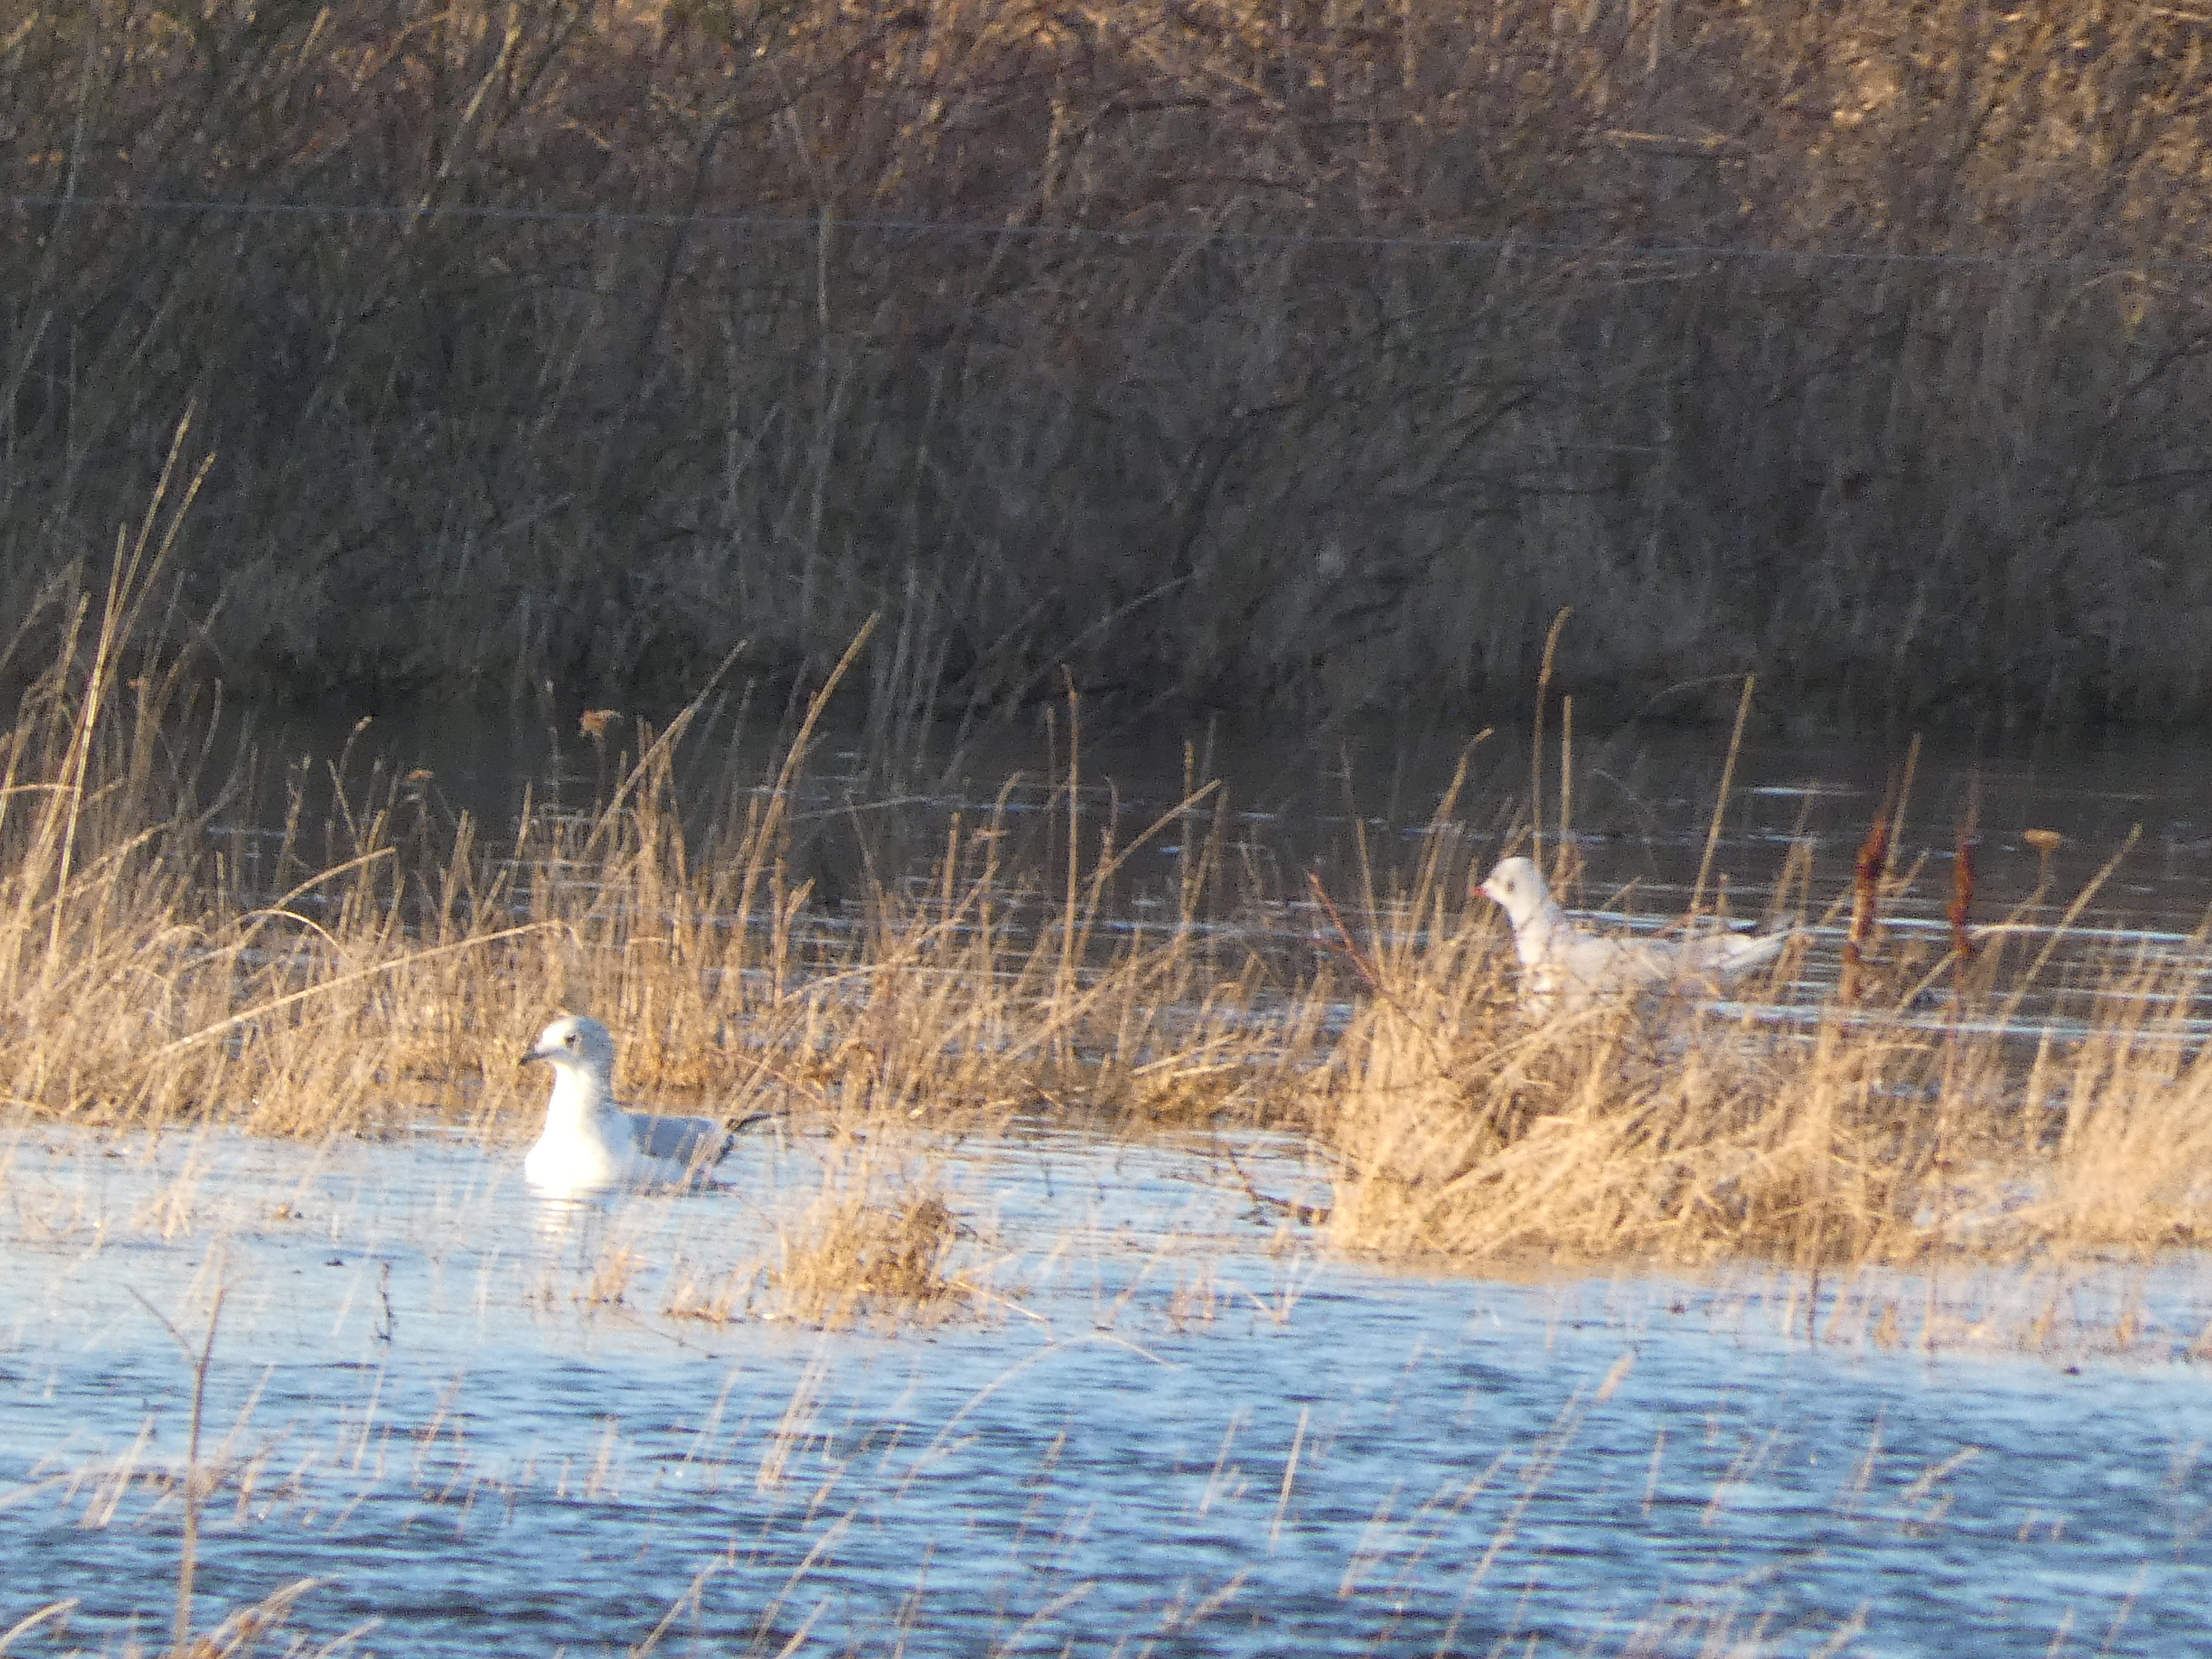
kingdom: Animalia
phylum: Chordata
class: Aves
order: Charadriiformes
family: Laridae
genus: Larus
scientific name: Larus canus
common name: Stormmåge
